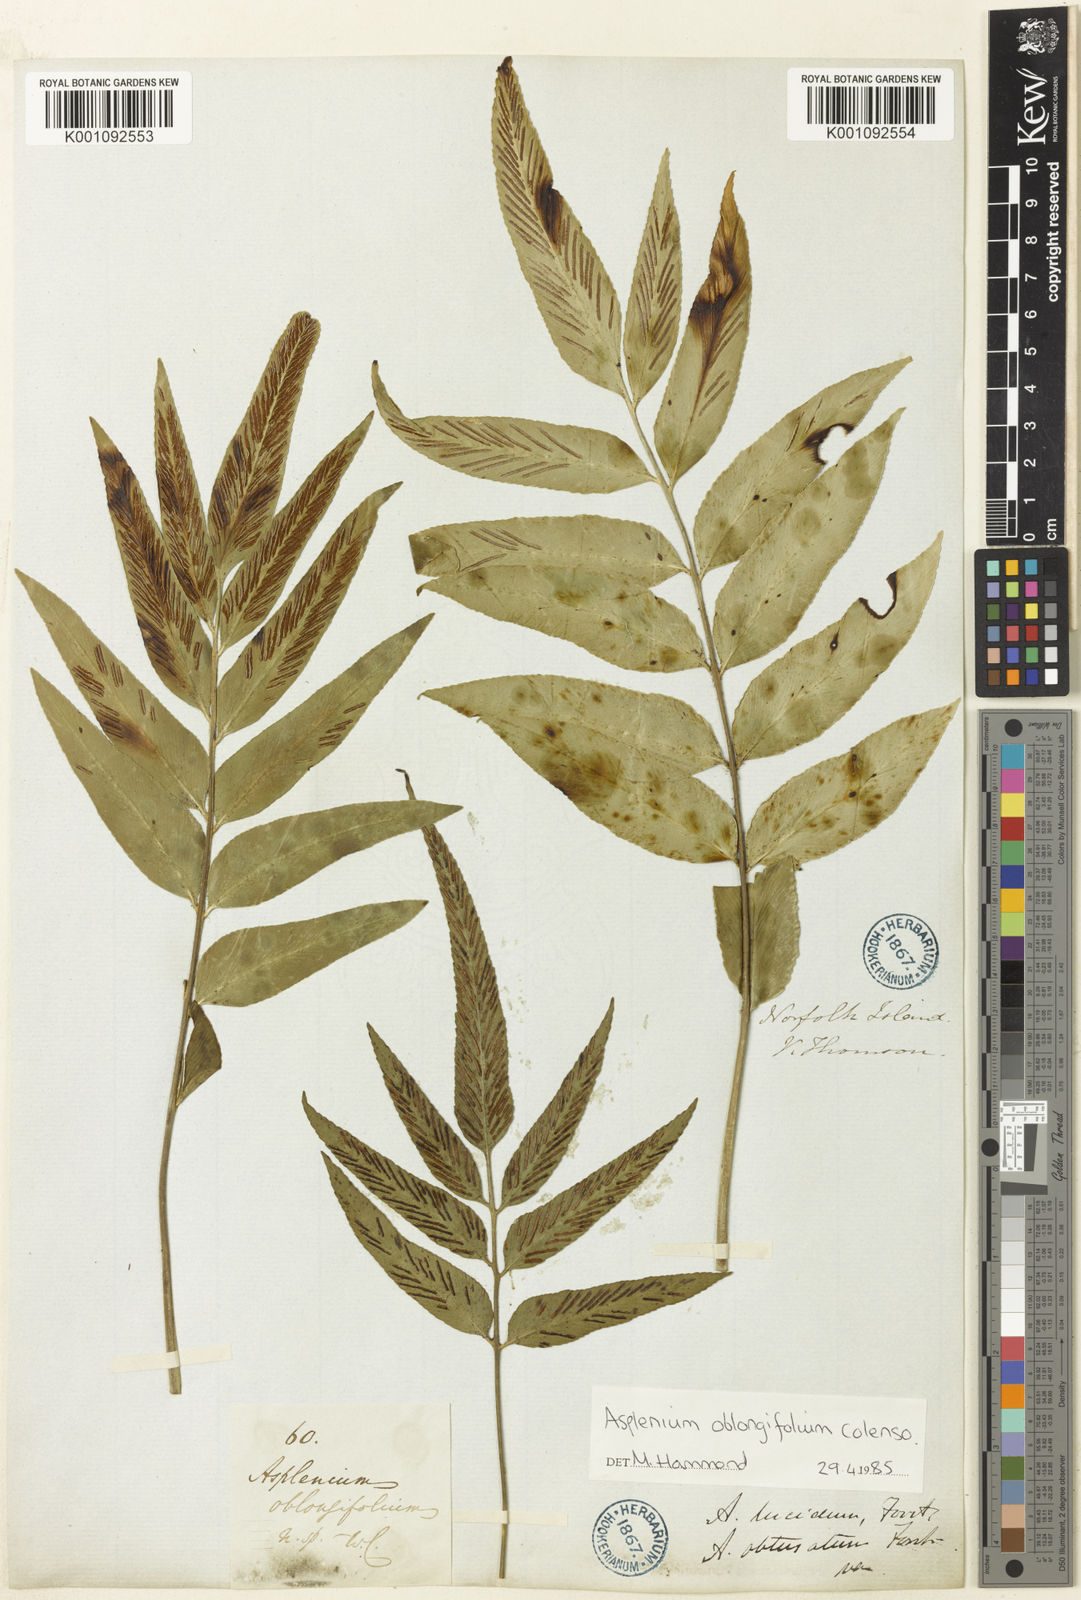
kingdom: Plantae
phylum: Tracheophyta
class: Polypodiopsida
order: Polypodiales
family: Aspleniaceae
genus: Asplenium
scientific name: Asplenium oblongifolium
